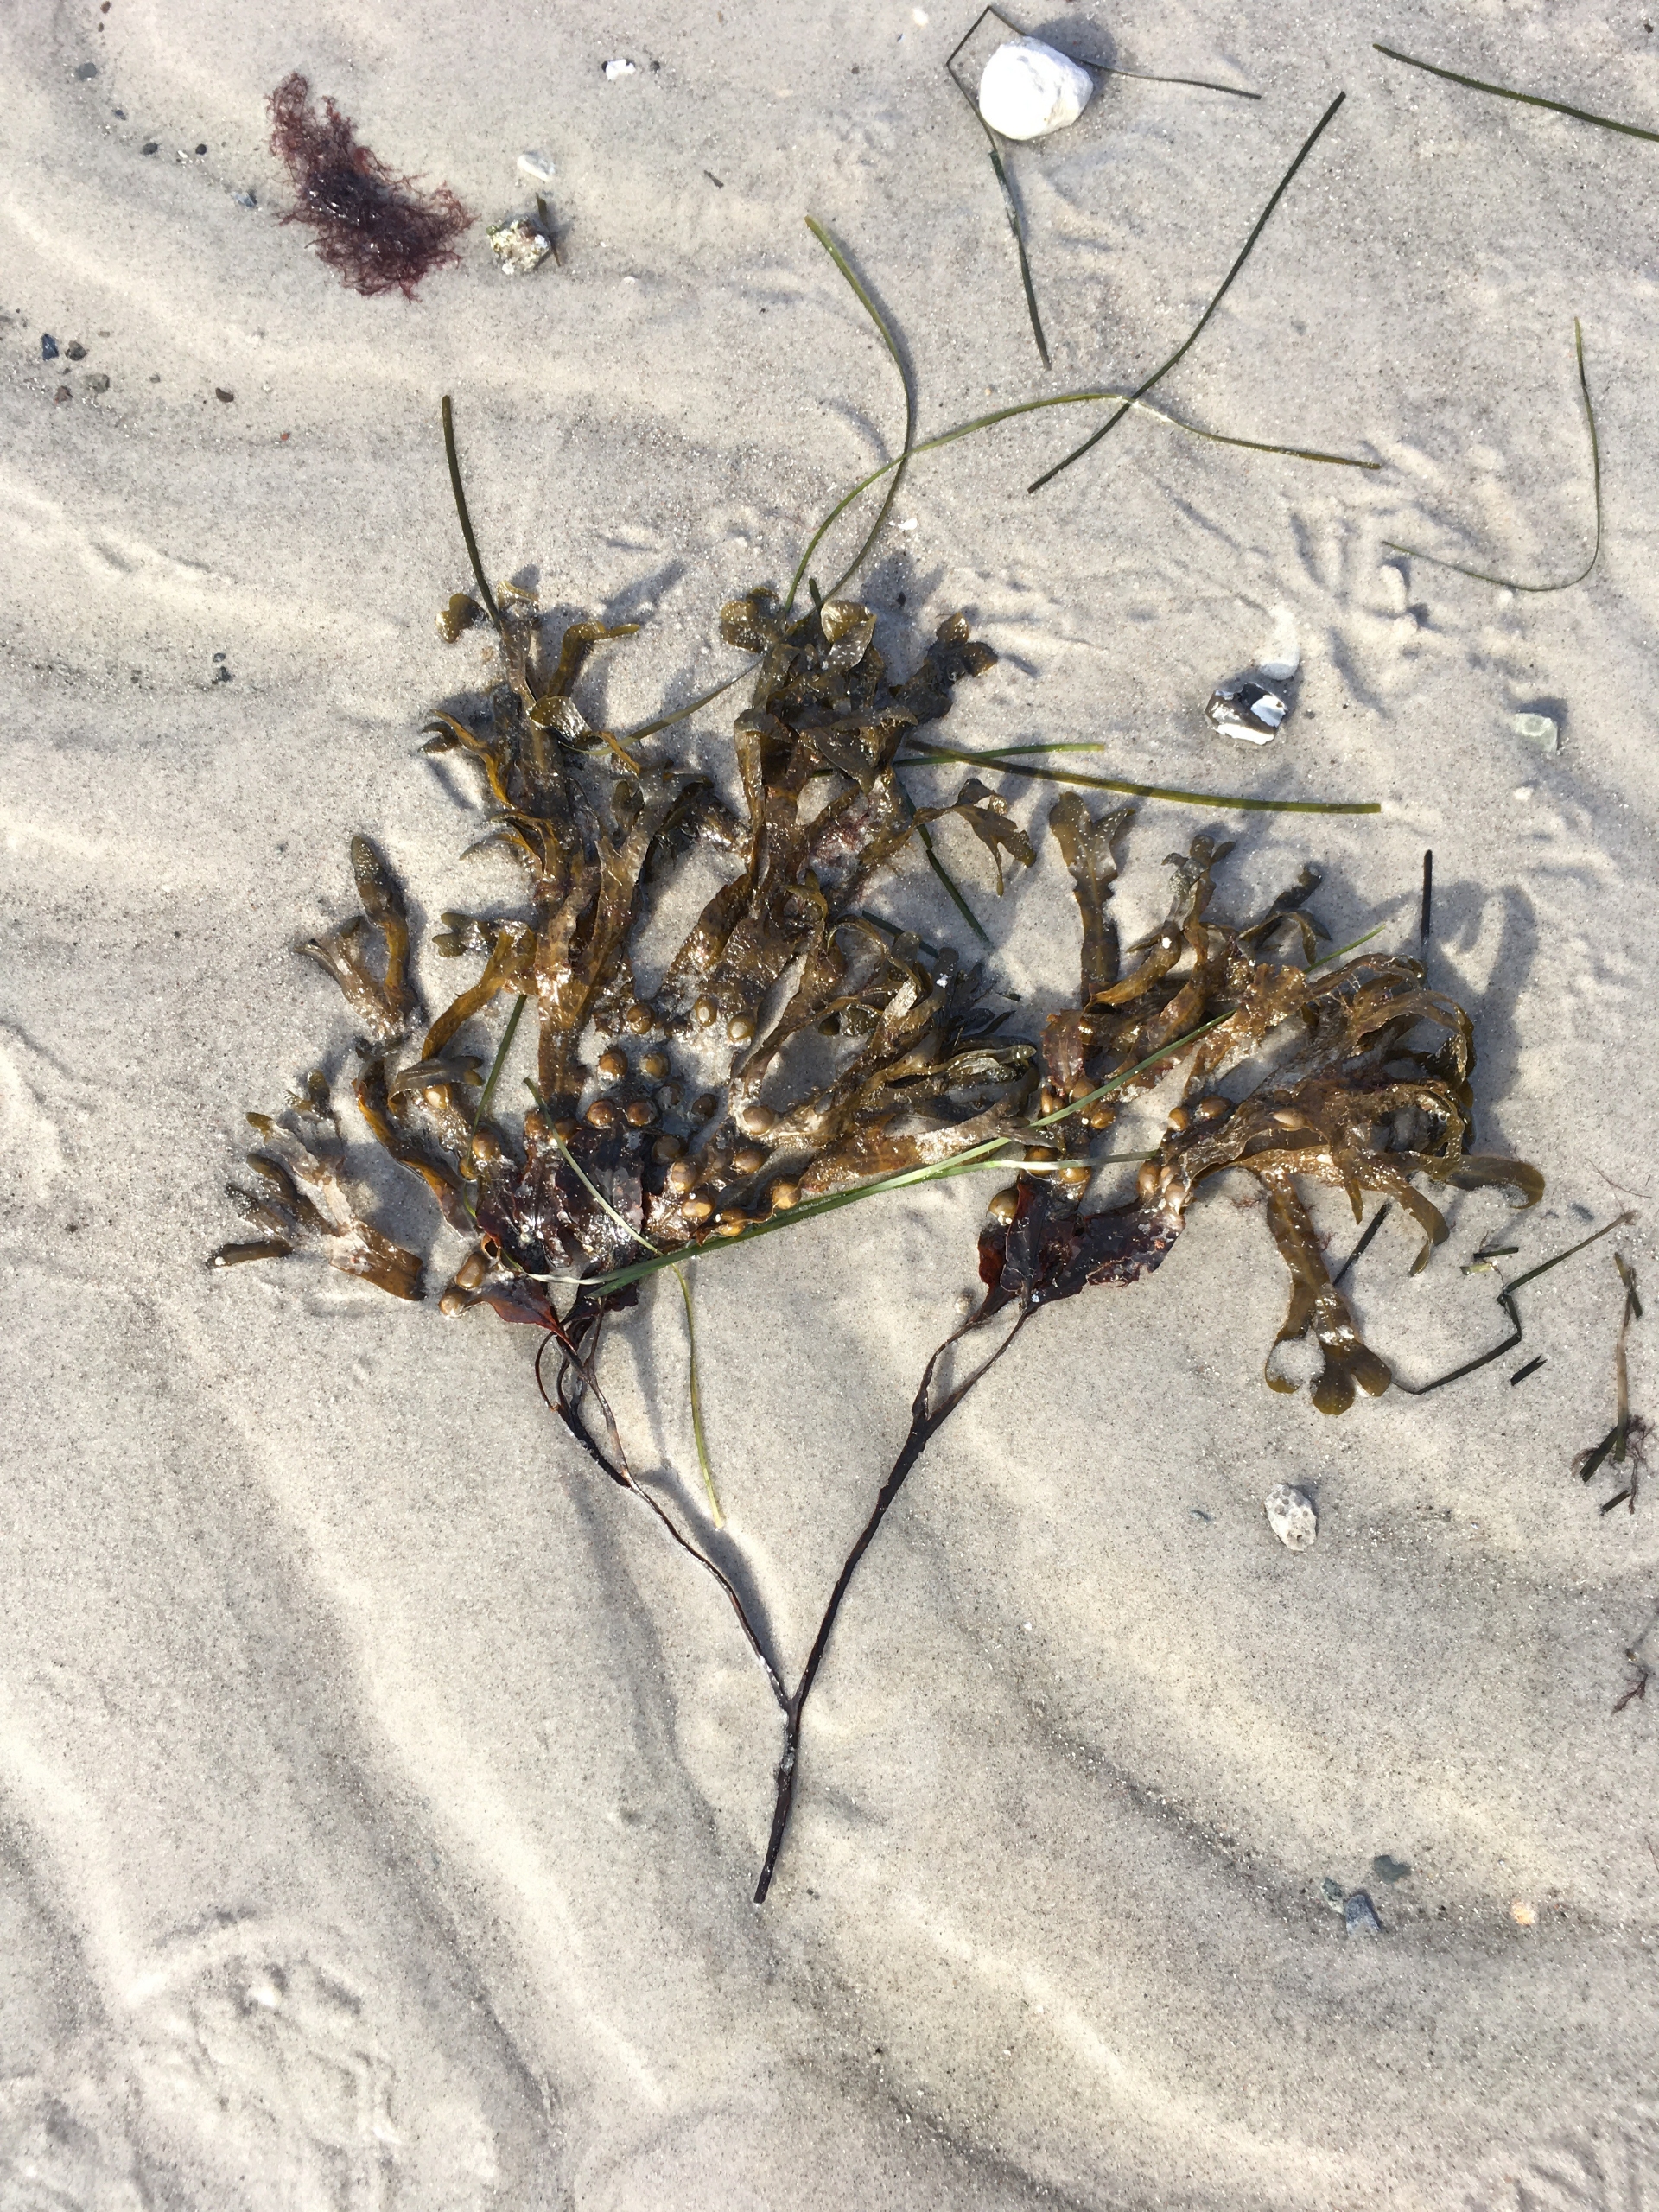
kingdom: Chromista
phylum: Ochrophyta
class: Phaeophyceae
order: Fucales
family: Fucaceae
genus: Fucus
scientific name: Fucus vesiculosus
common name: Blæretang
